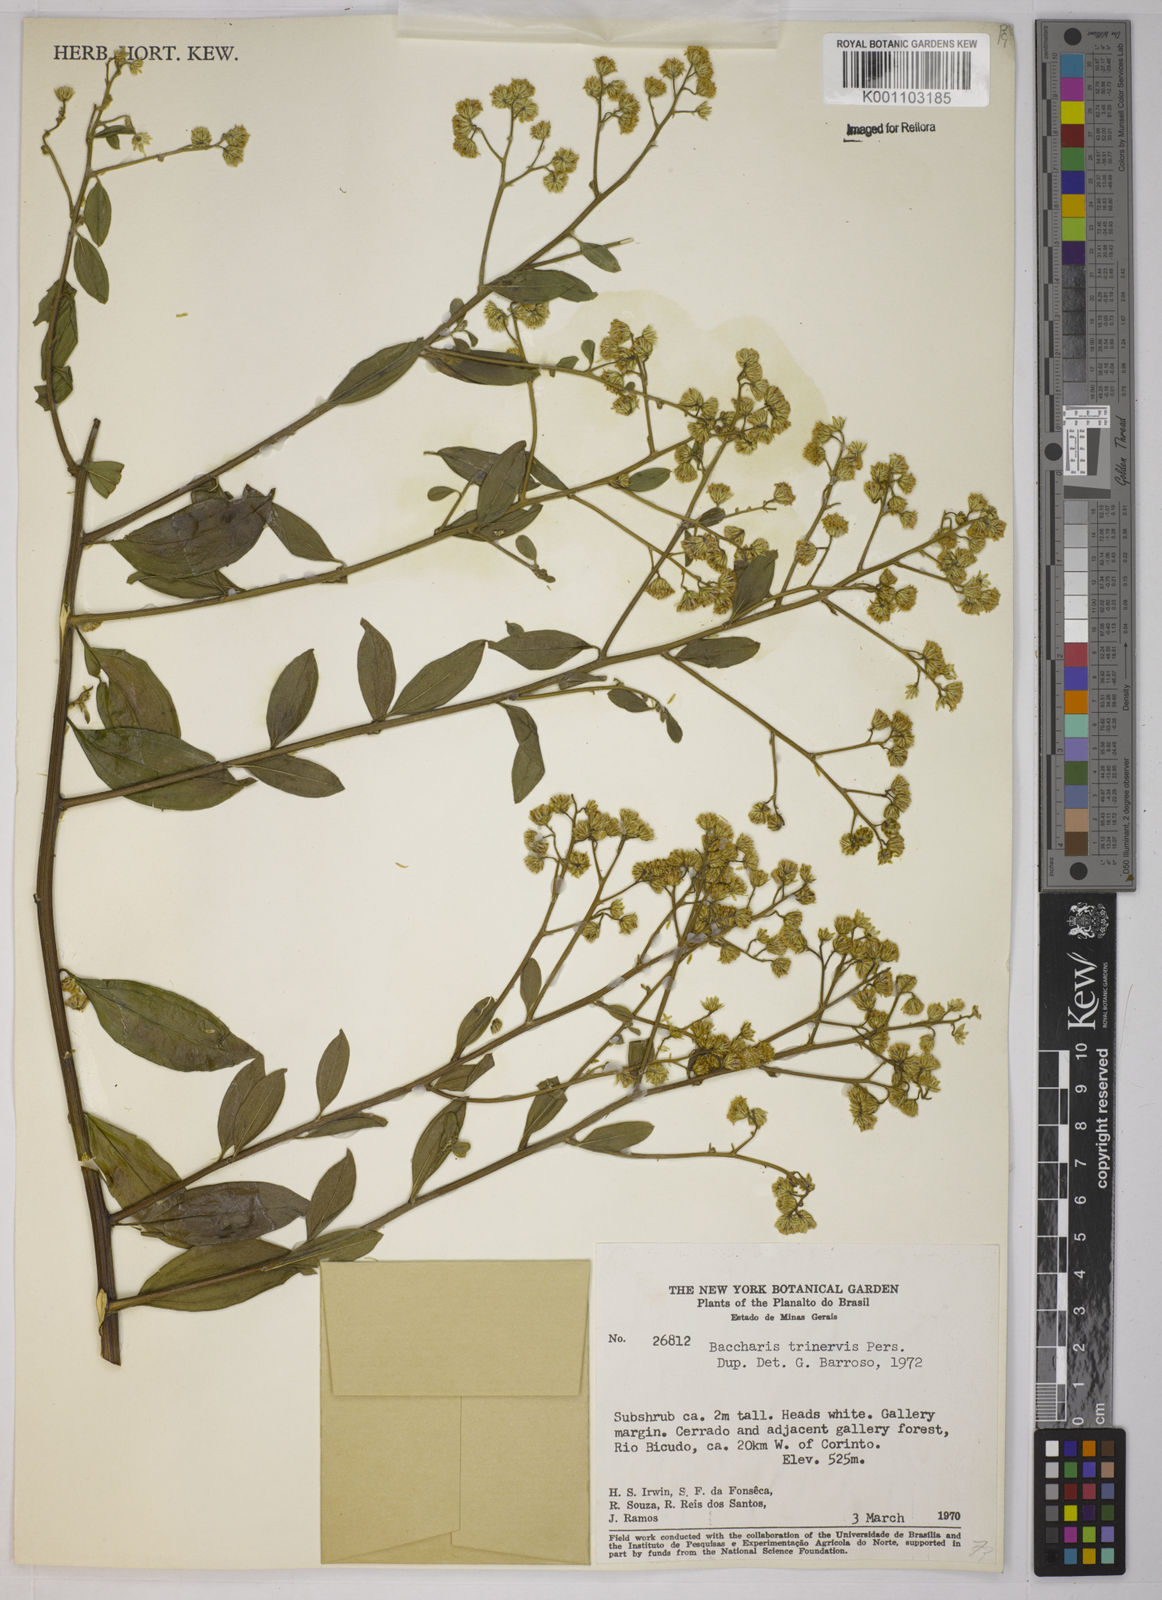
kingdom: Plantae
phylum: Tracheophyta
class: Magnoliopsida
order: Asterales
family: Asteraceae
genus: Baccharis
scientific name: Baccharis trinervis
